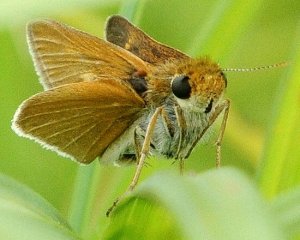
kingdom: Animalia
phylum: Arthropoda
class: Insecta
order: Lepidoptera
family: Hesperiidae
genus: Euphyes
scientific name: Euphyes bimacula
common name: Two-spotted Skipper
